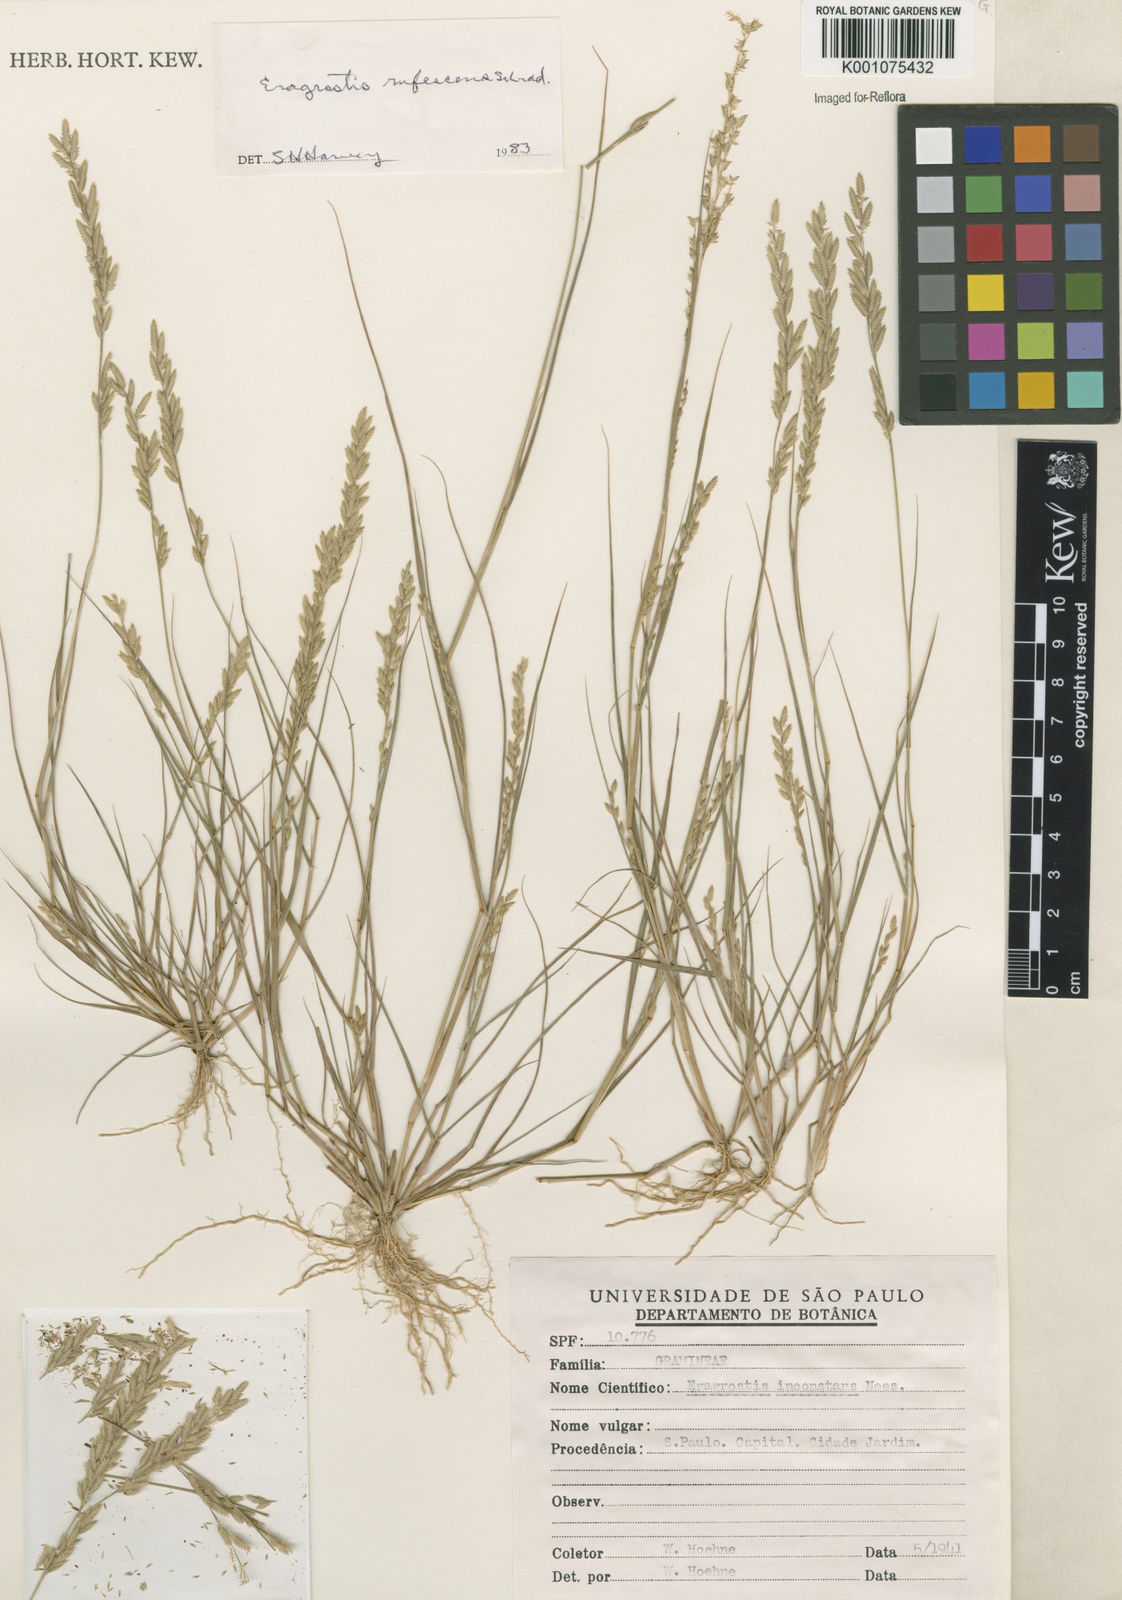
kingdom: Plantae
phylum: Tracheophyta
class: Liliopsida
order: Poales
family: Poaceae
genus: Eragrostis
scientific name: Eragrostis rufescens
